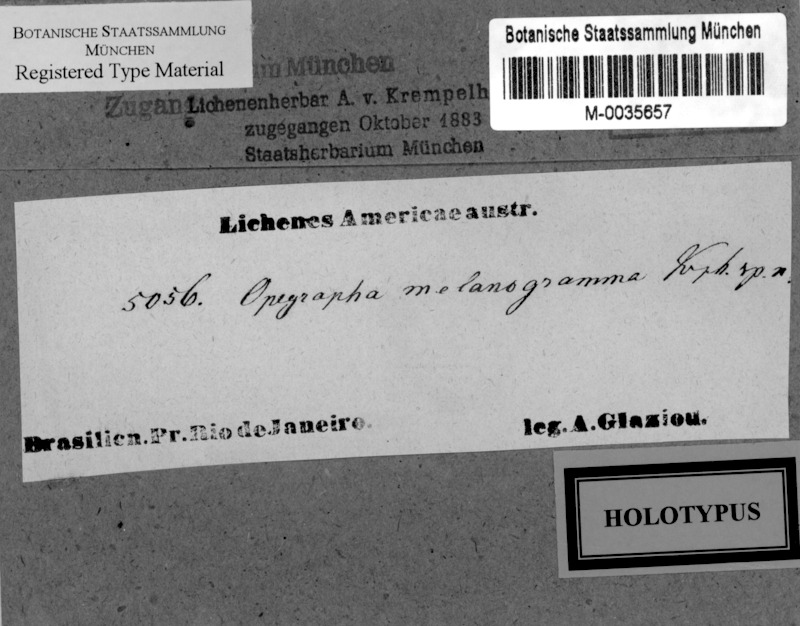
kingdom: Fungi
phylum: Ascomycota
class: Arthoniomycetes
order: Arthoniales
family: Opegraphaceae
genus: Opegrapha
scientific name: Opegrapha
